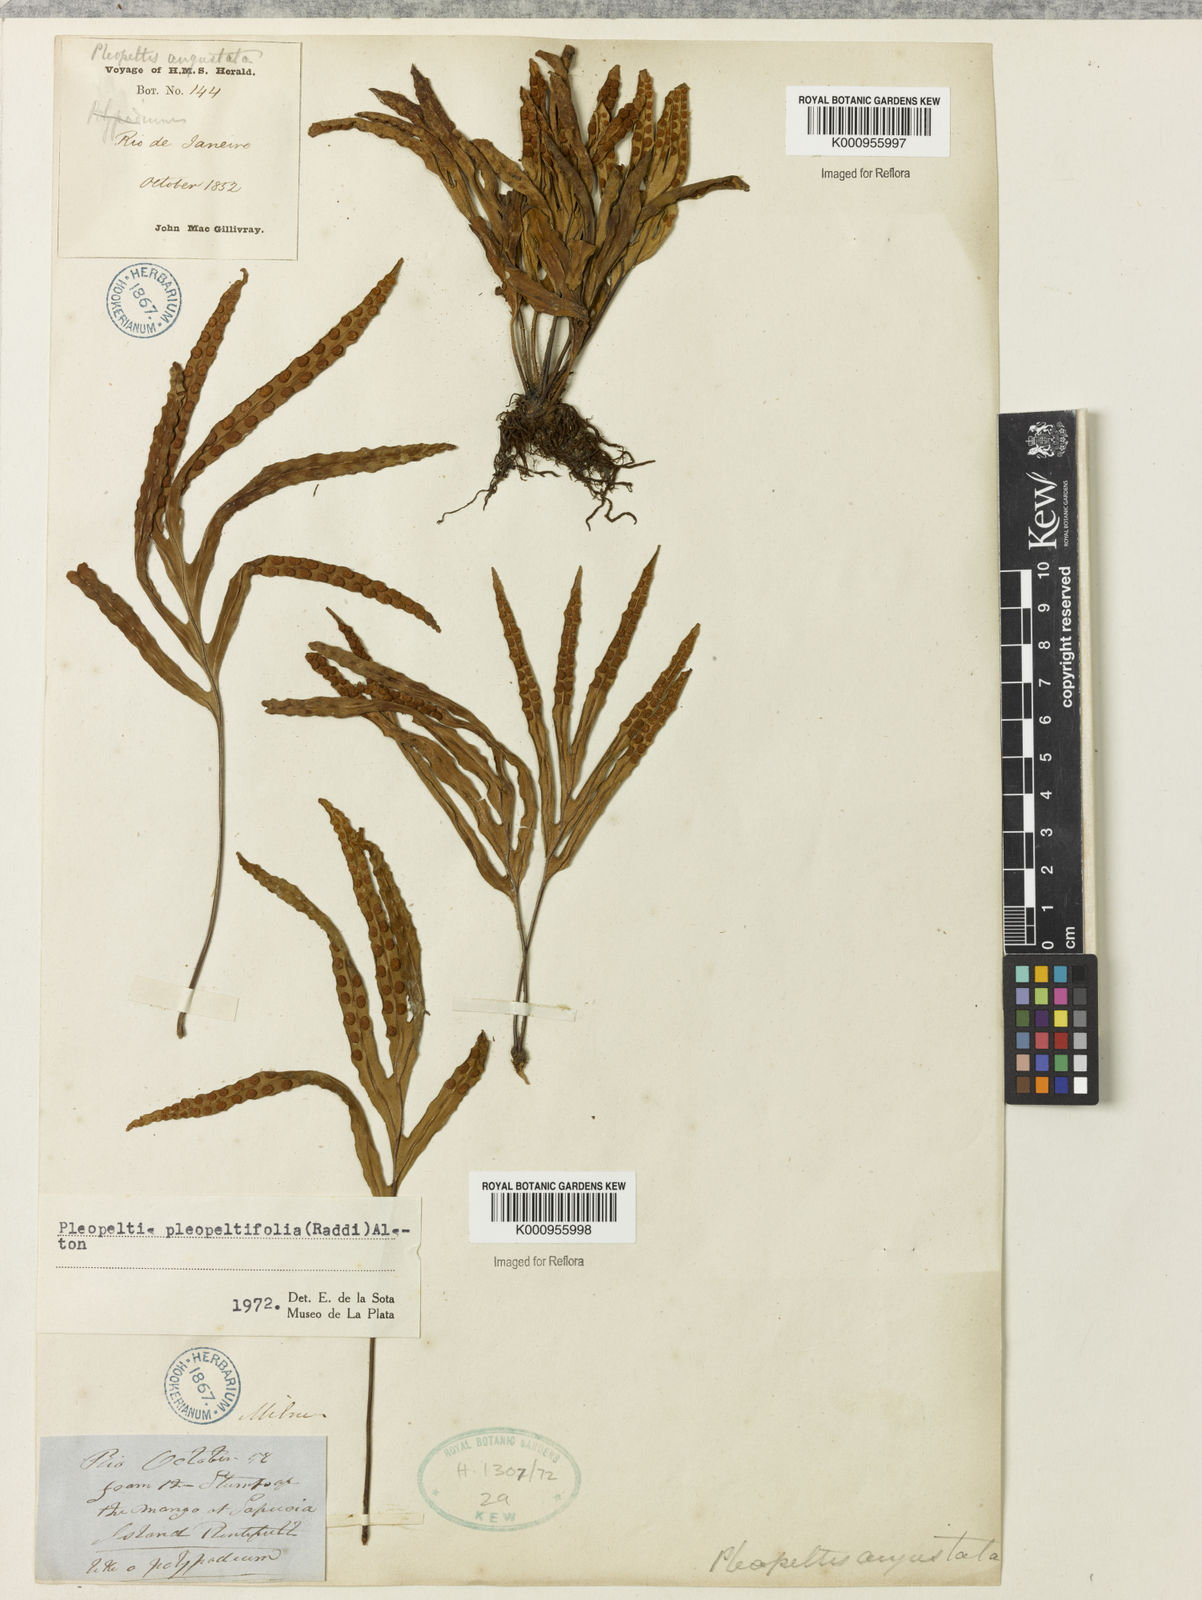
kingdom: Plantae
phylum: Tracheophyta
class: Polypodiopsida
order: Polypodiales
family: Polypodiaceae
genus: Pleopeltis
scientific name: Pleopeltis angusta
